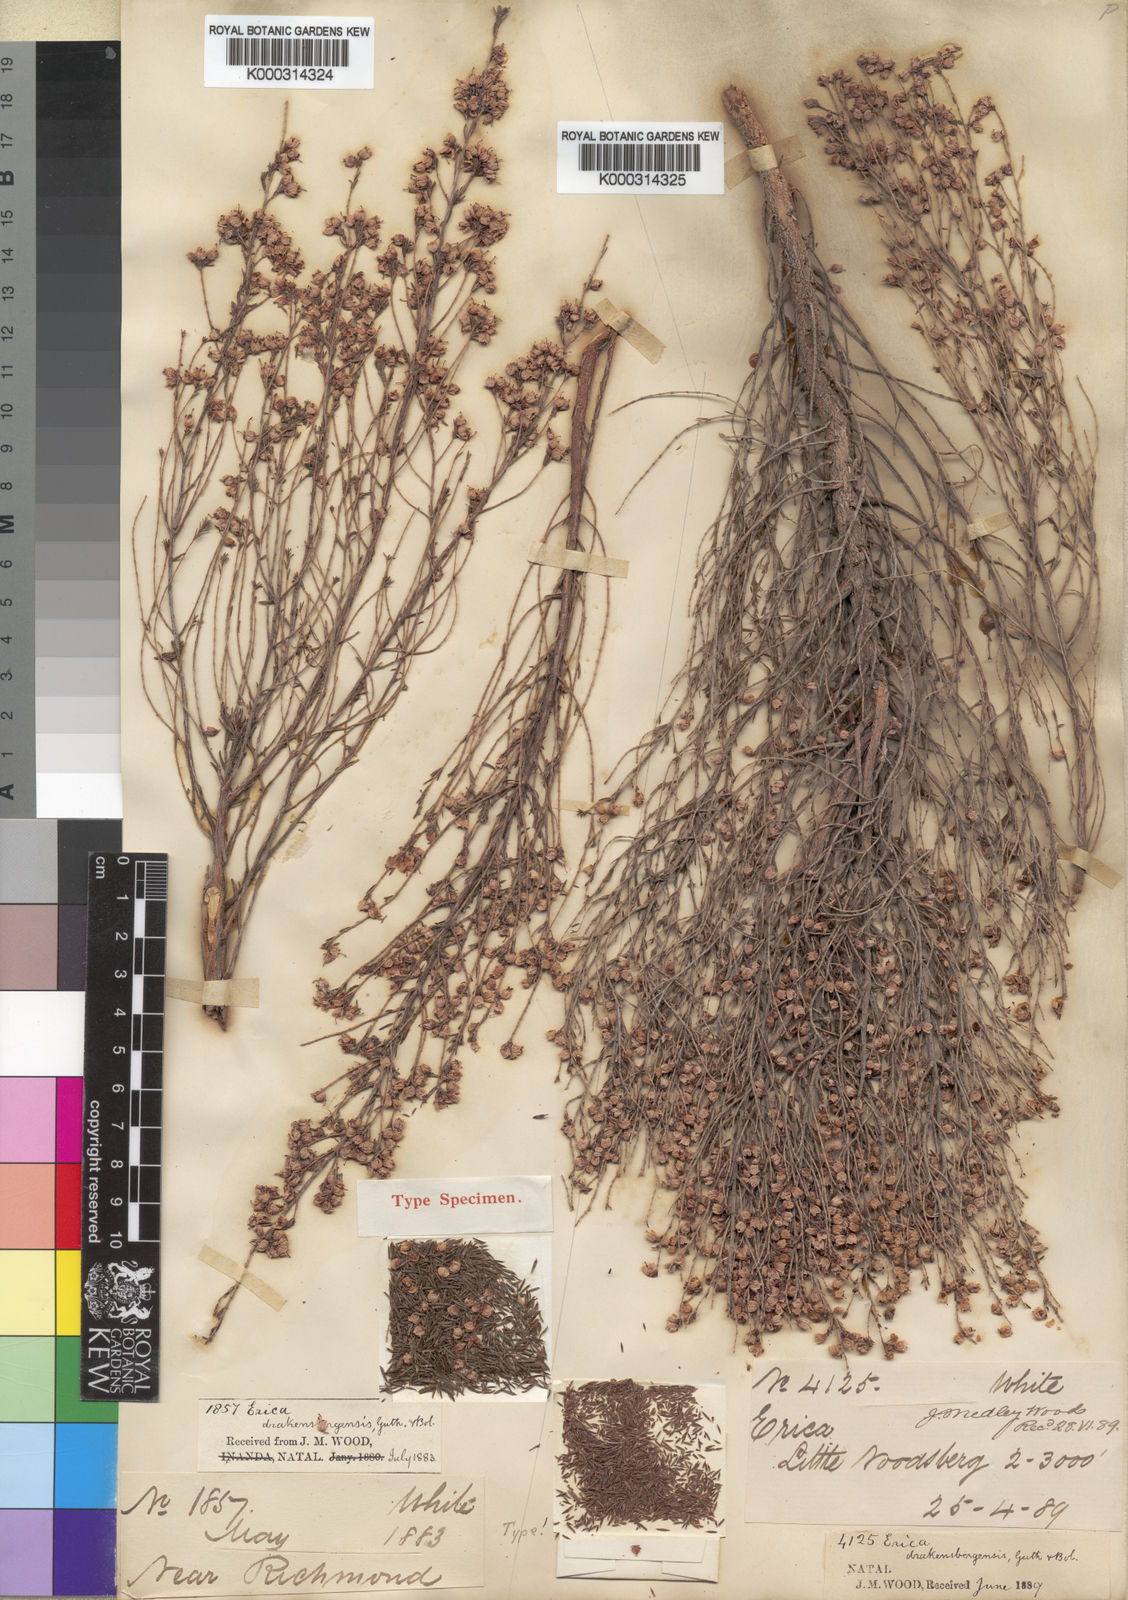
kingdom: Plantae
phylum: Tracheophyta
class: Magnoliopsida
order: Ericales
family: Ericaceae
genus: Erica
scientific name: Erica drakensbergensis
